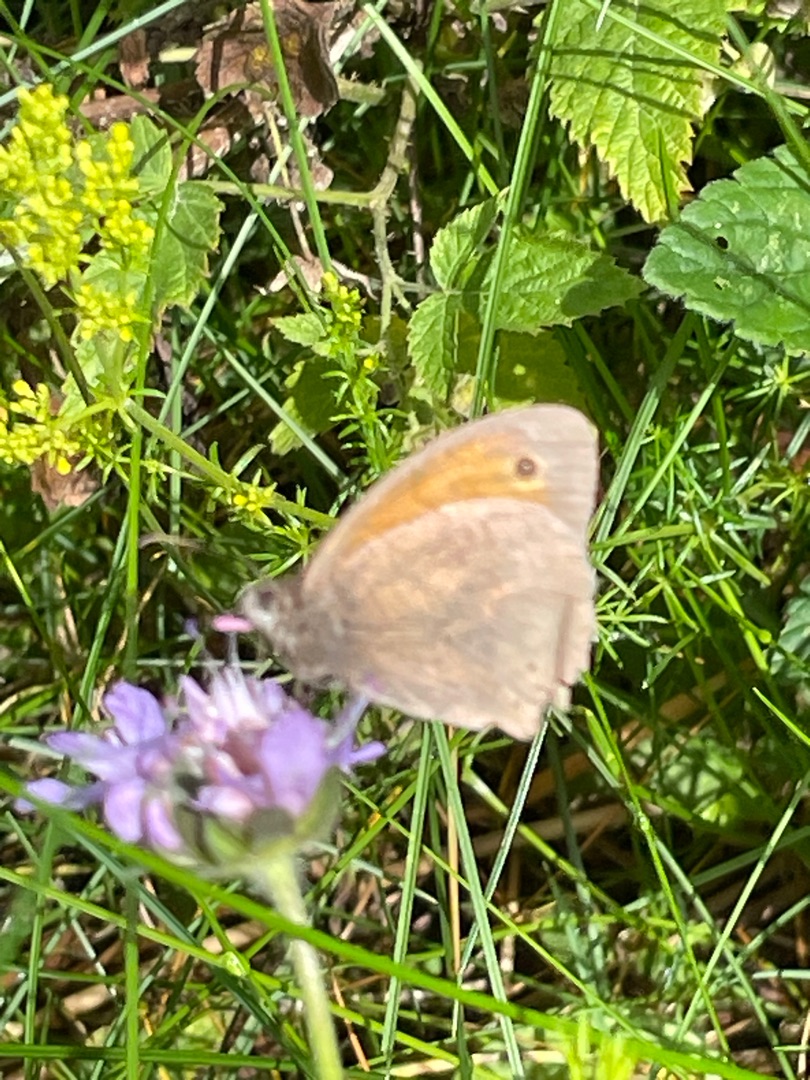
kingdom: Animalia
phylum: Arthropoda
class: Insecta
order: Lepidoptera
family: Nymphalidae
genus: Maniola
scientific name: Maniola jurtina
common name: Græsrandøje
